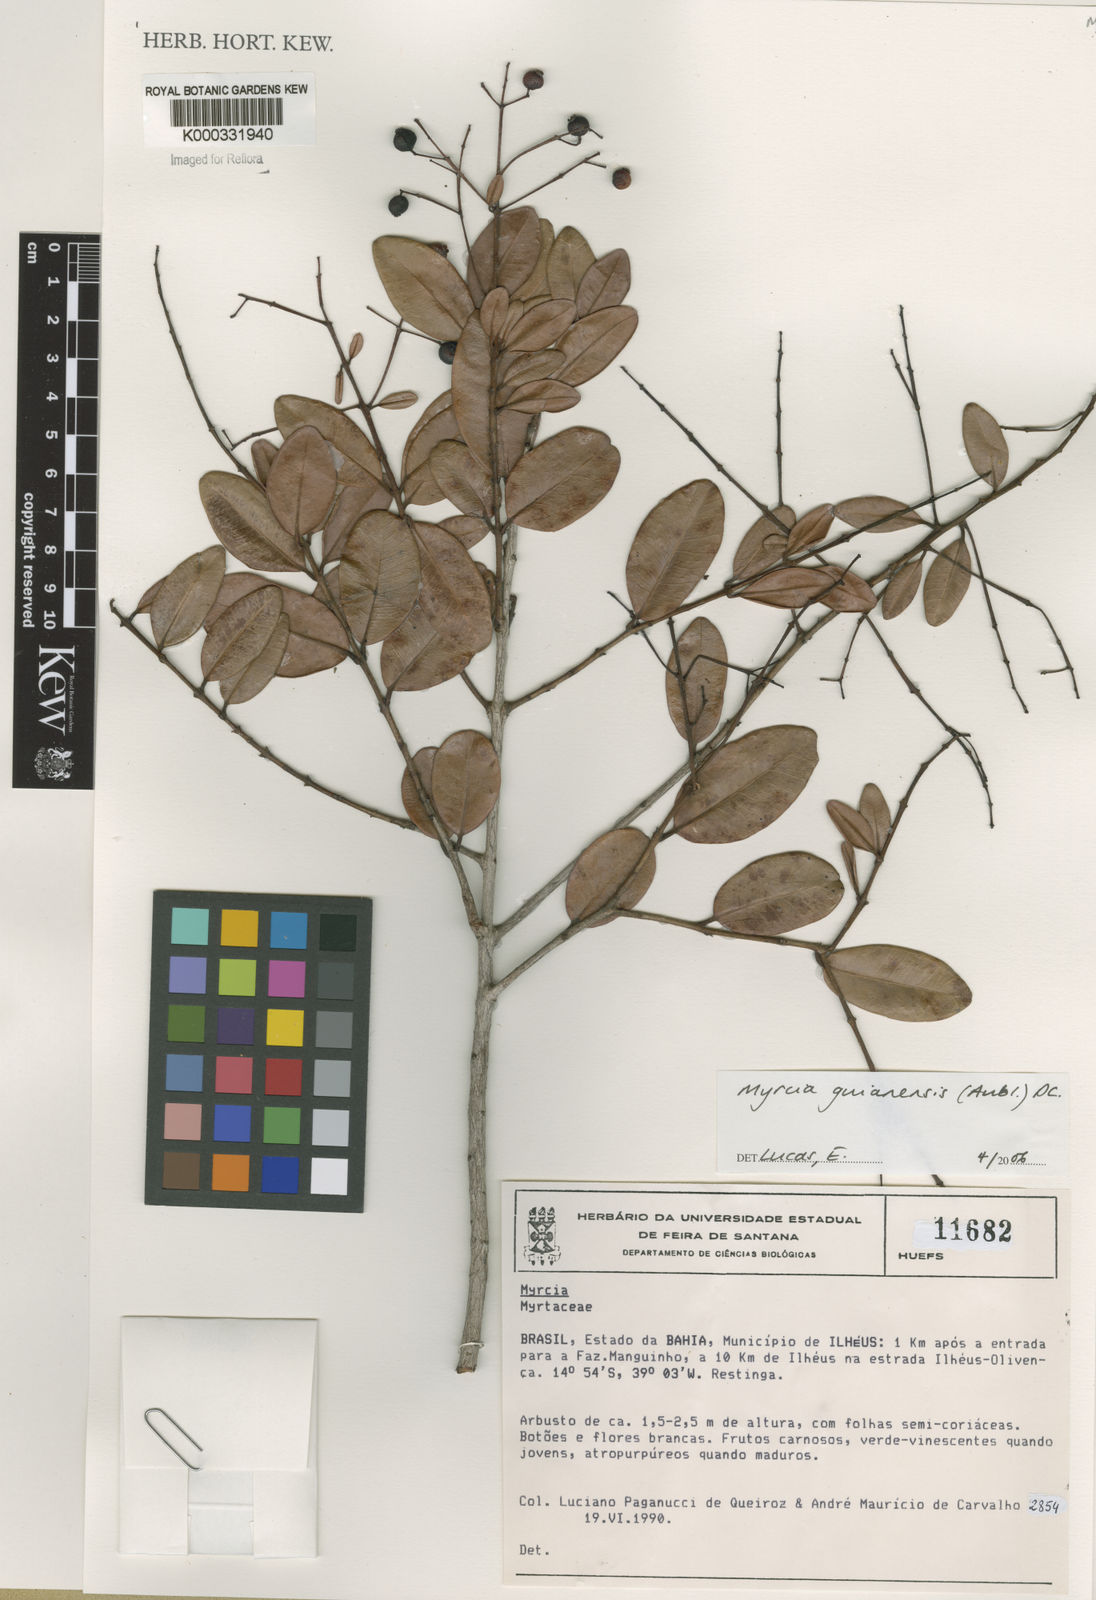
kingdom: Plantae
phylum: Tracheophyta
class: Magnoliopsida
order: Myrtales
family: Myrtaceae
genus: Myrcia
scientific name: Myrcia guianensis
